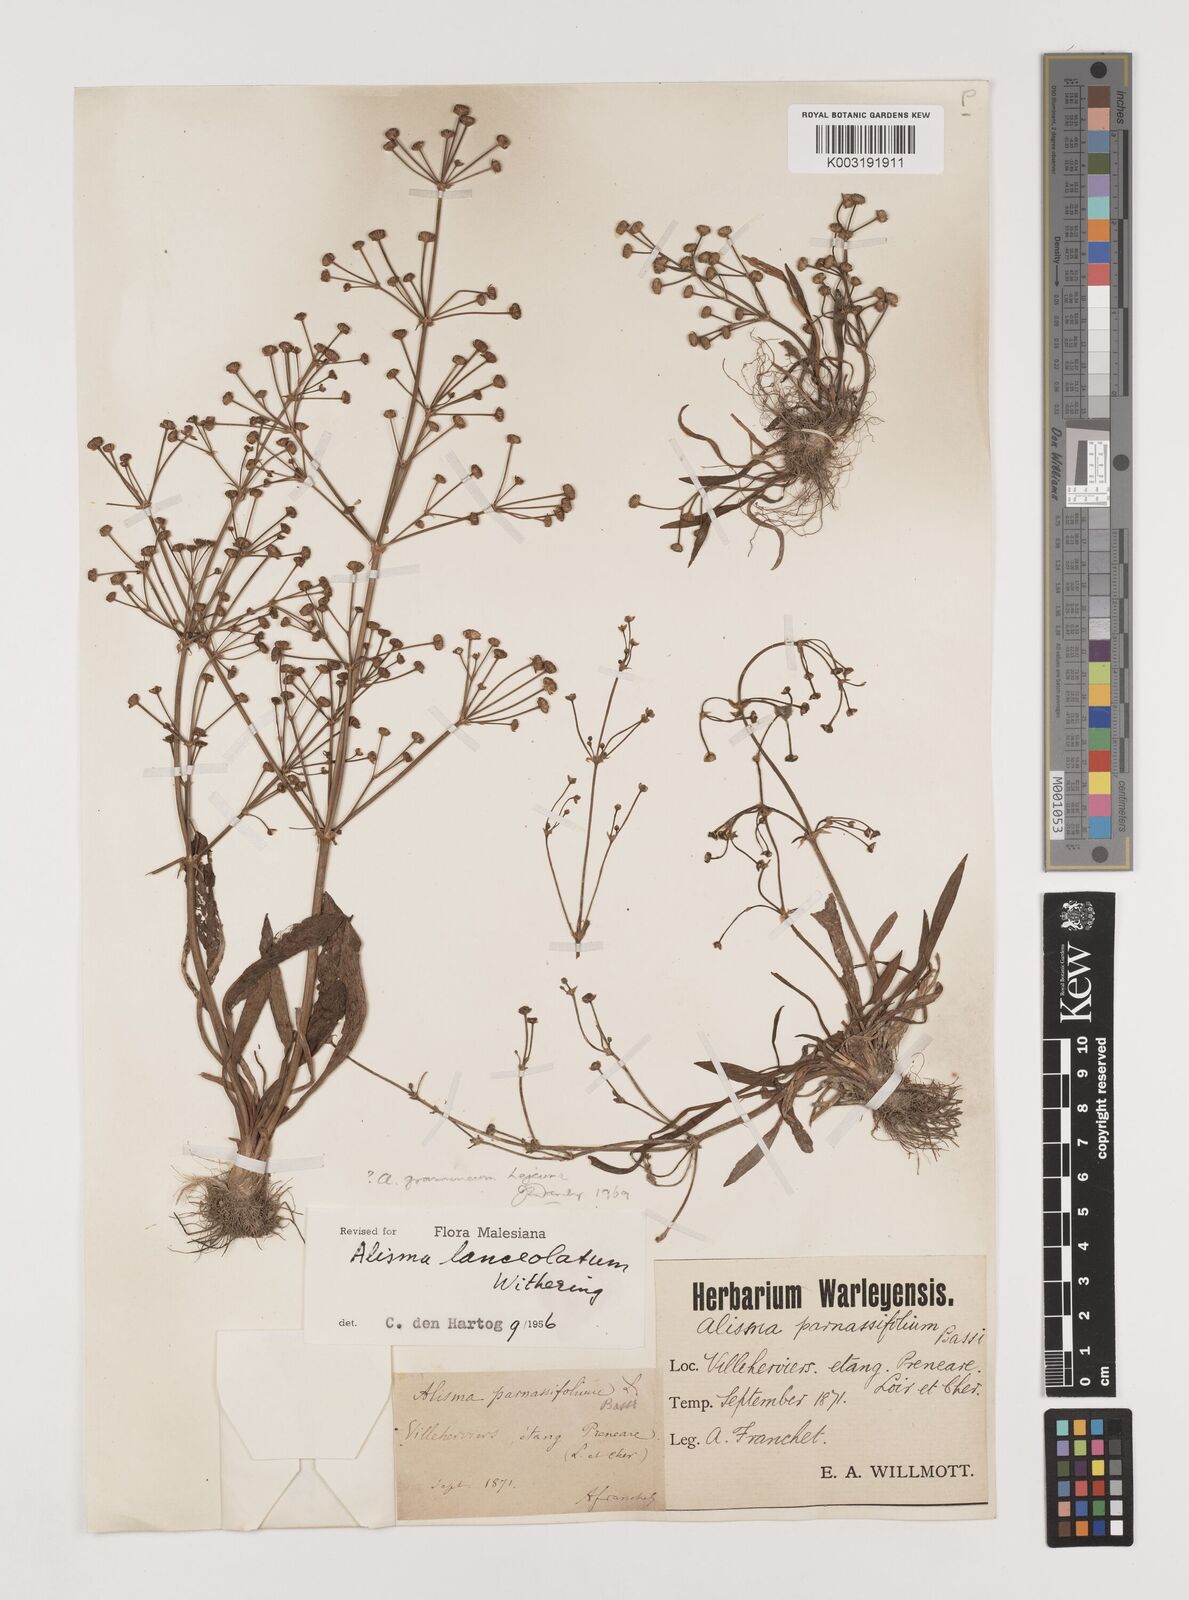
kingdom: Plantae
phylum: Tracheophyta
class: Liliopsida
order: Alismatales
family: Alismataceae
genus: Alisma
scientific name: Alisma gramineum
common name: Ribbon-leaved water-plantain
